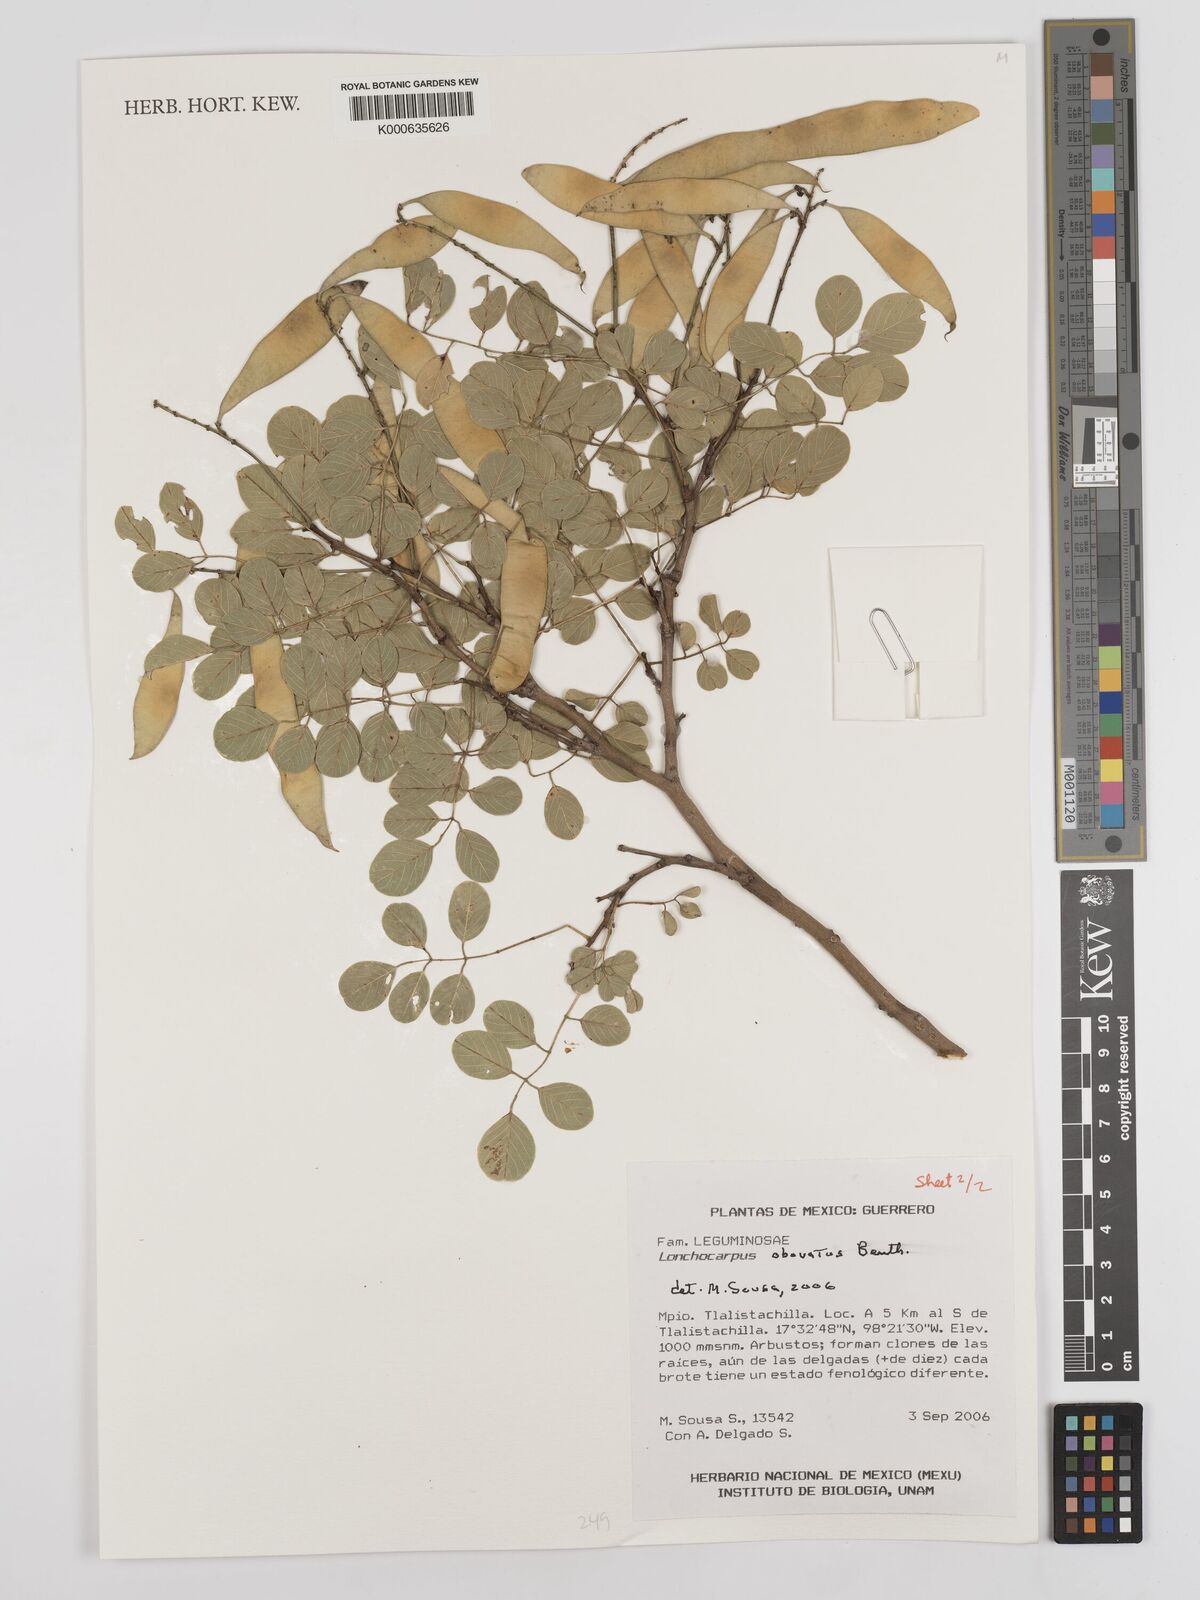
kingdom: Plantae
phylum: Tracheophyta
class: Magnoliopsida
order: Fabales
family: Fabaceae
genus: Lonchocarpus
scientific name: Lonchocarpus obovatus
